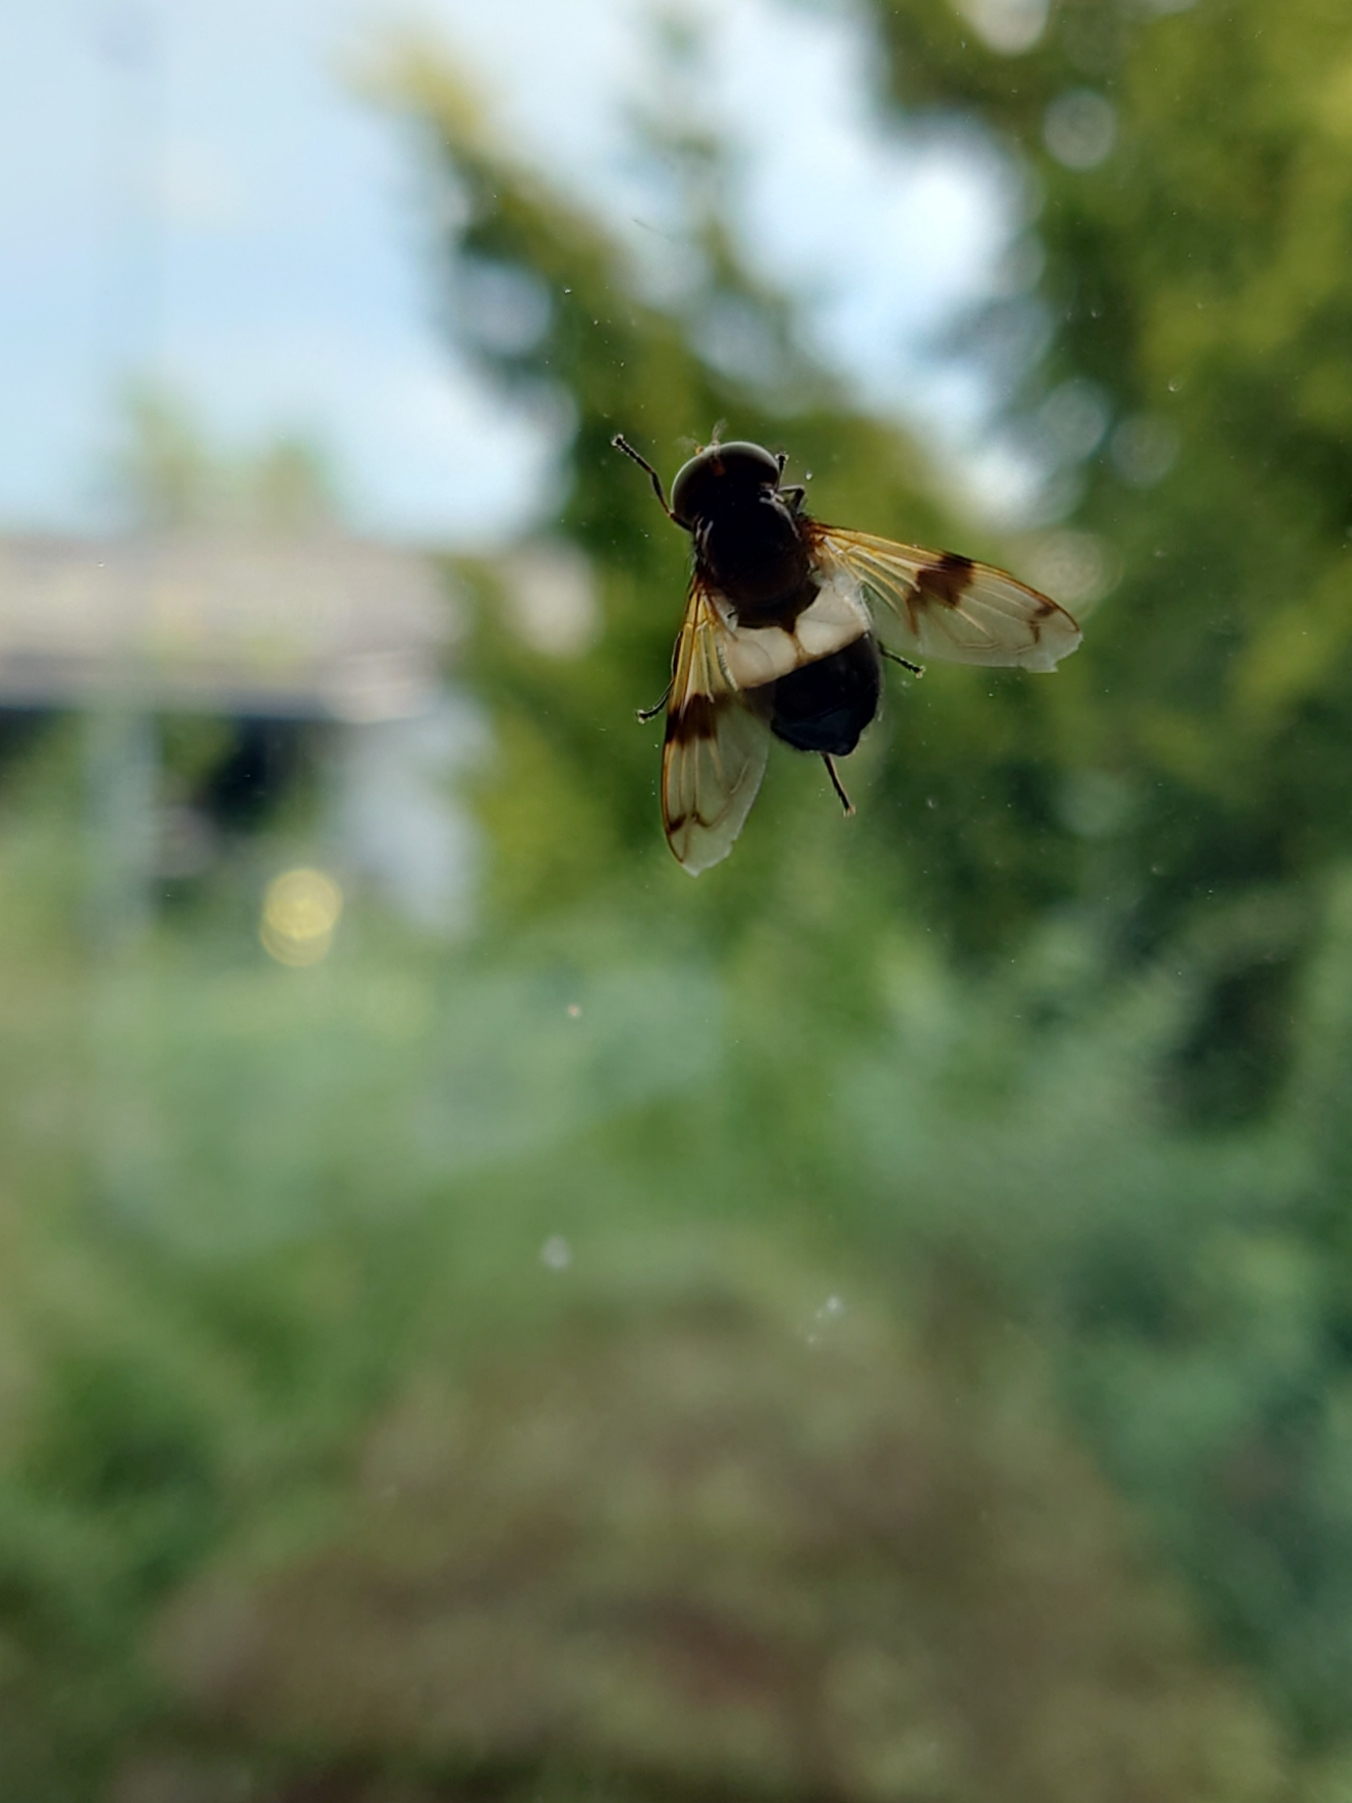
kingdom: Animalia
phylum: Arthropoda
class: Insecta
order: Diptera
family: Syrphidae
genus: Volucella
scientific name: Volucella pellucens
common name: Hvidbåndet humlesvirreflue
